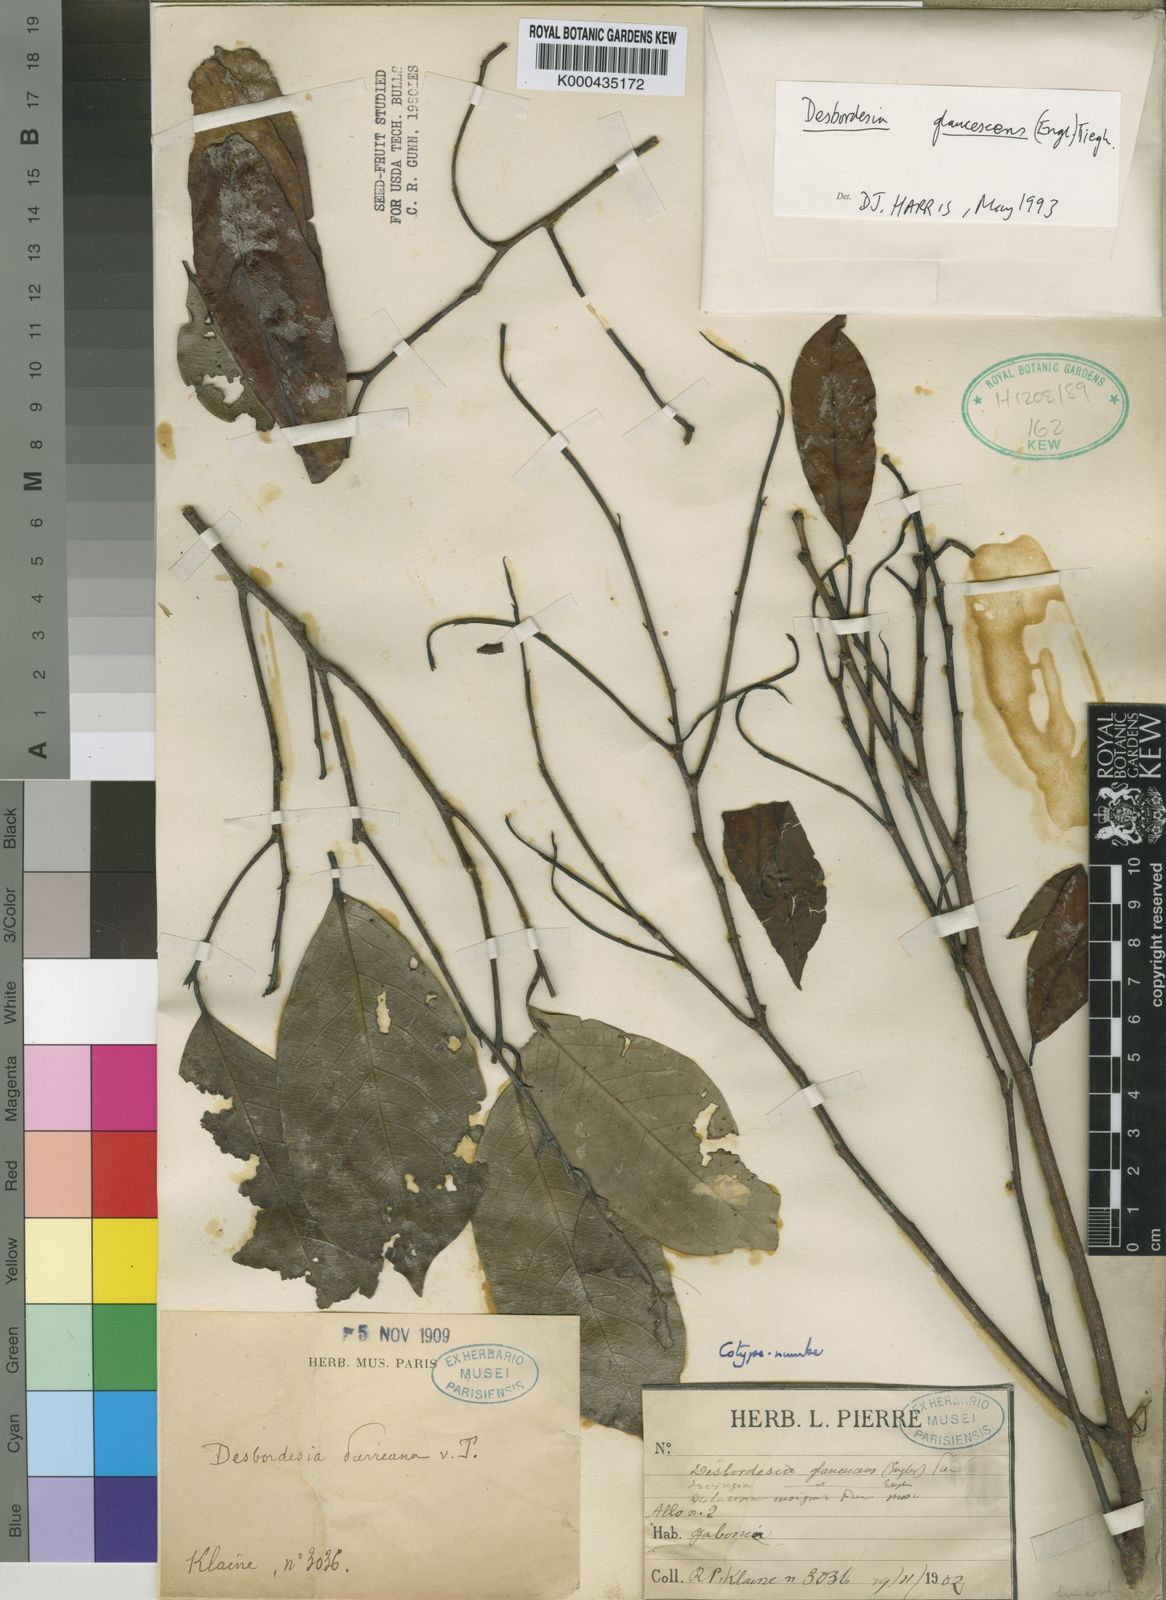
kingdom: Plantae
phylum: Tracheophyta
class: Magnoliopsida
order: Malpighiales
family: Irvingiaceae
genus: Desbordesia
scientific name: Desbordesia glaucescens
